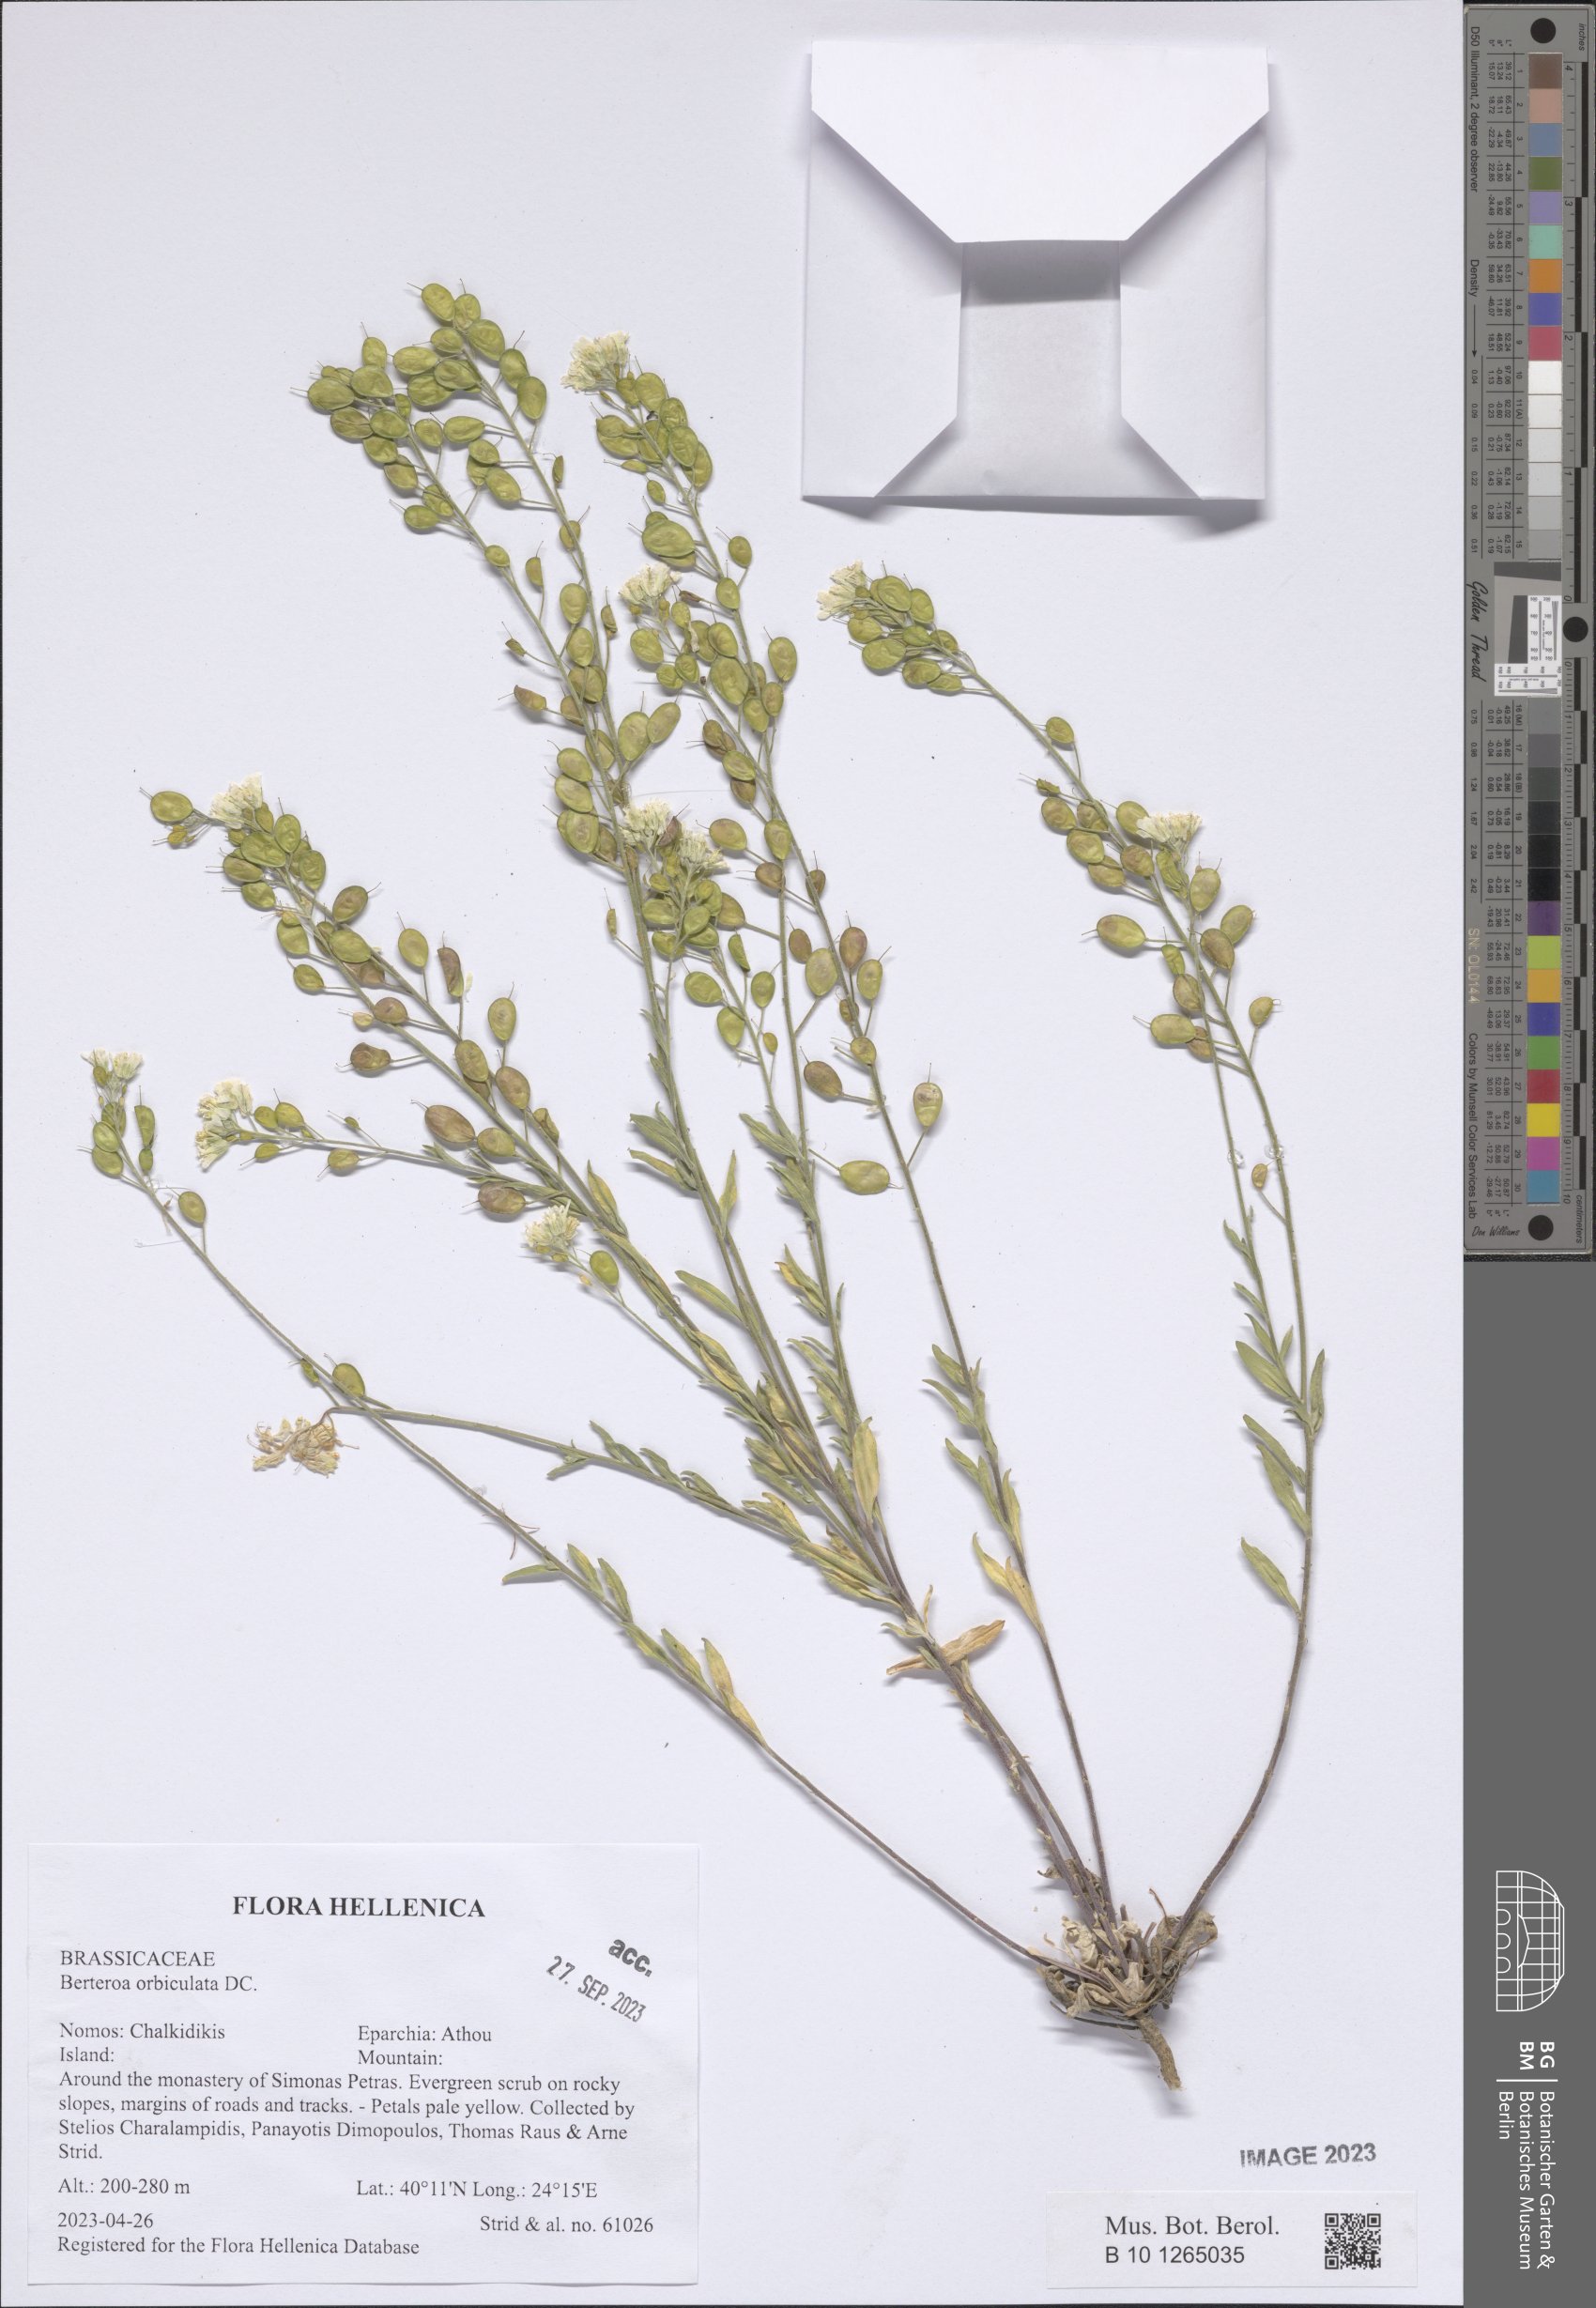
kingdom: Plantae
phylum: Tracheophyta
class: Magnoliopsida
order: Brassicales
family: Brassicaceae
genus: Berteroa
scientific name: Berteroa orbiculata
